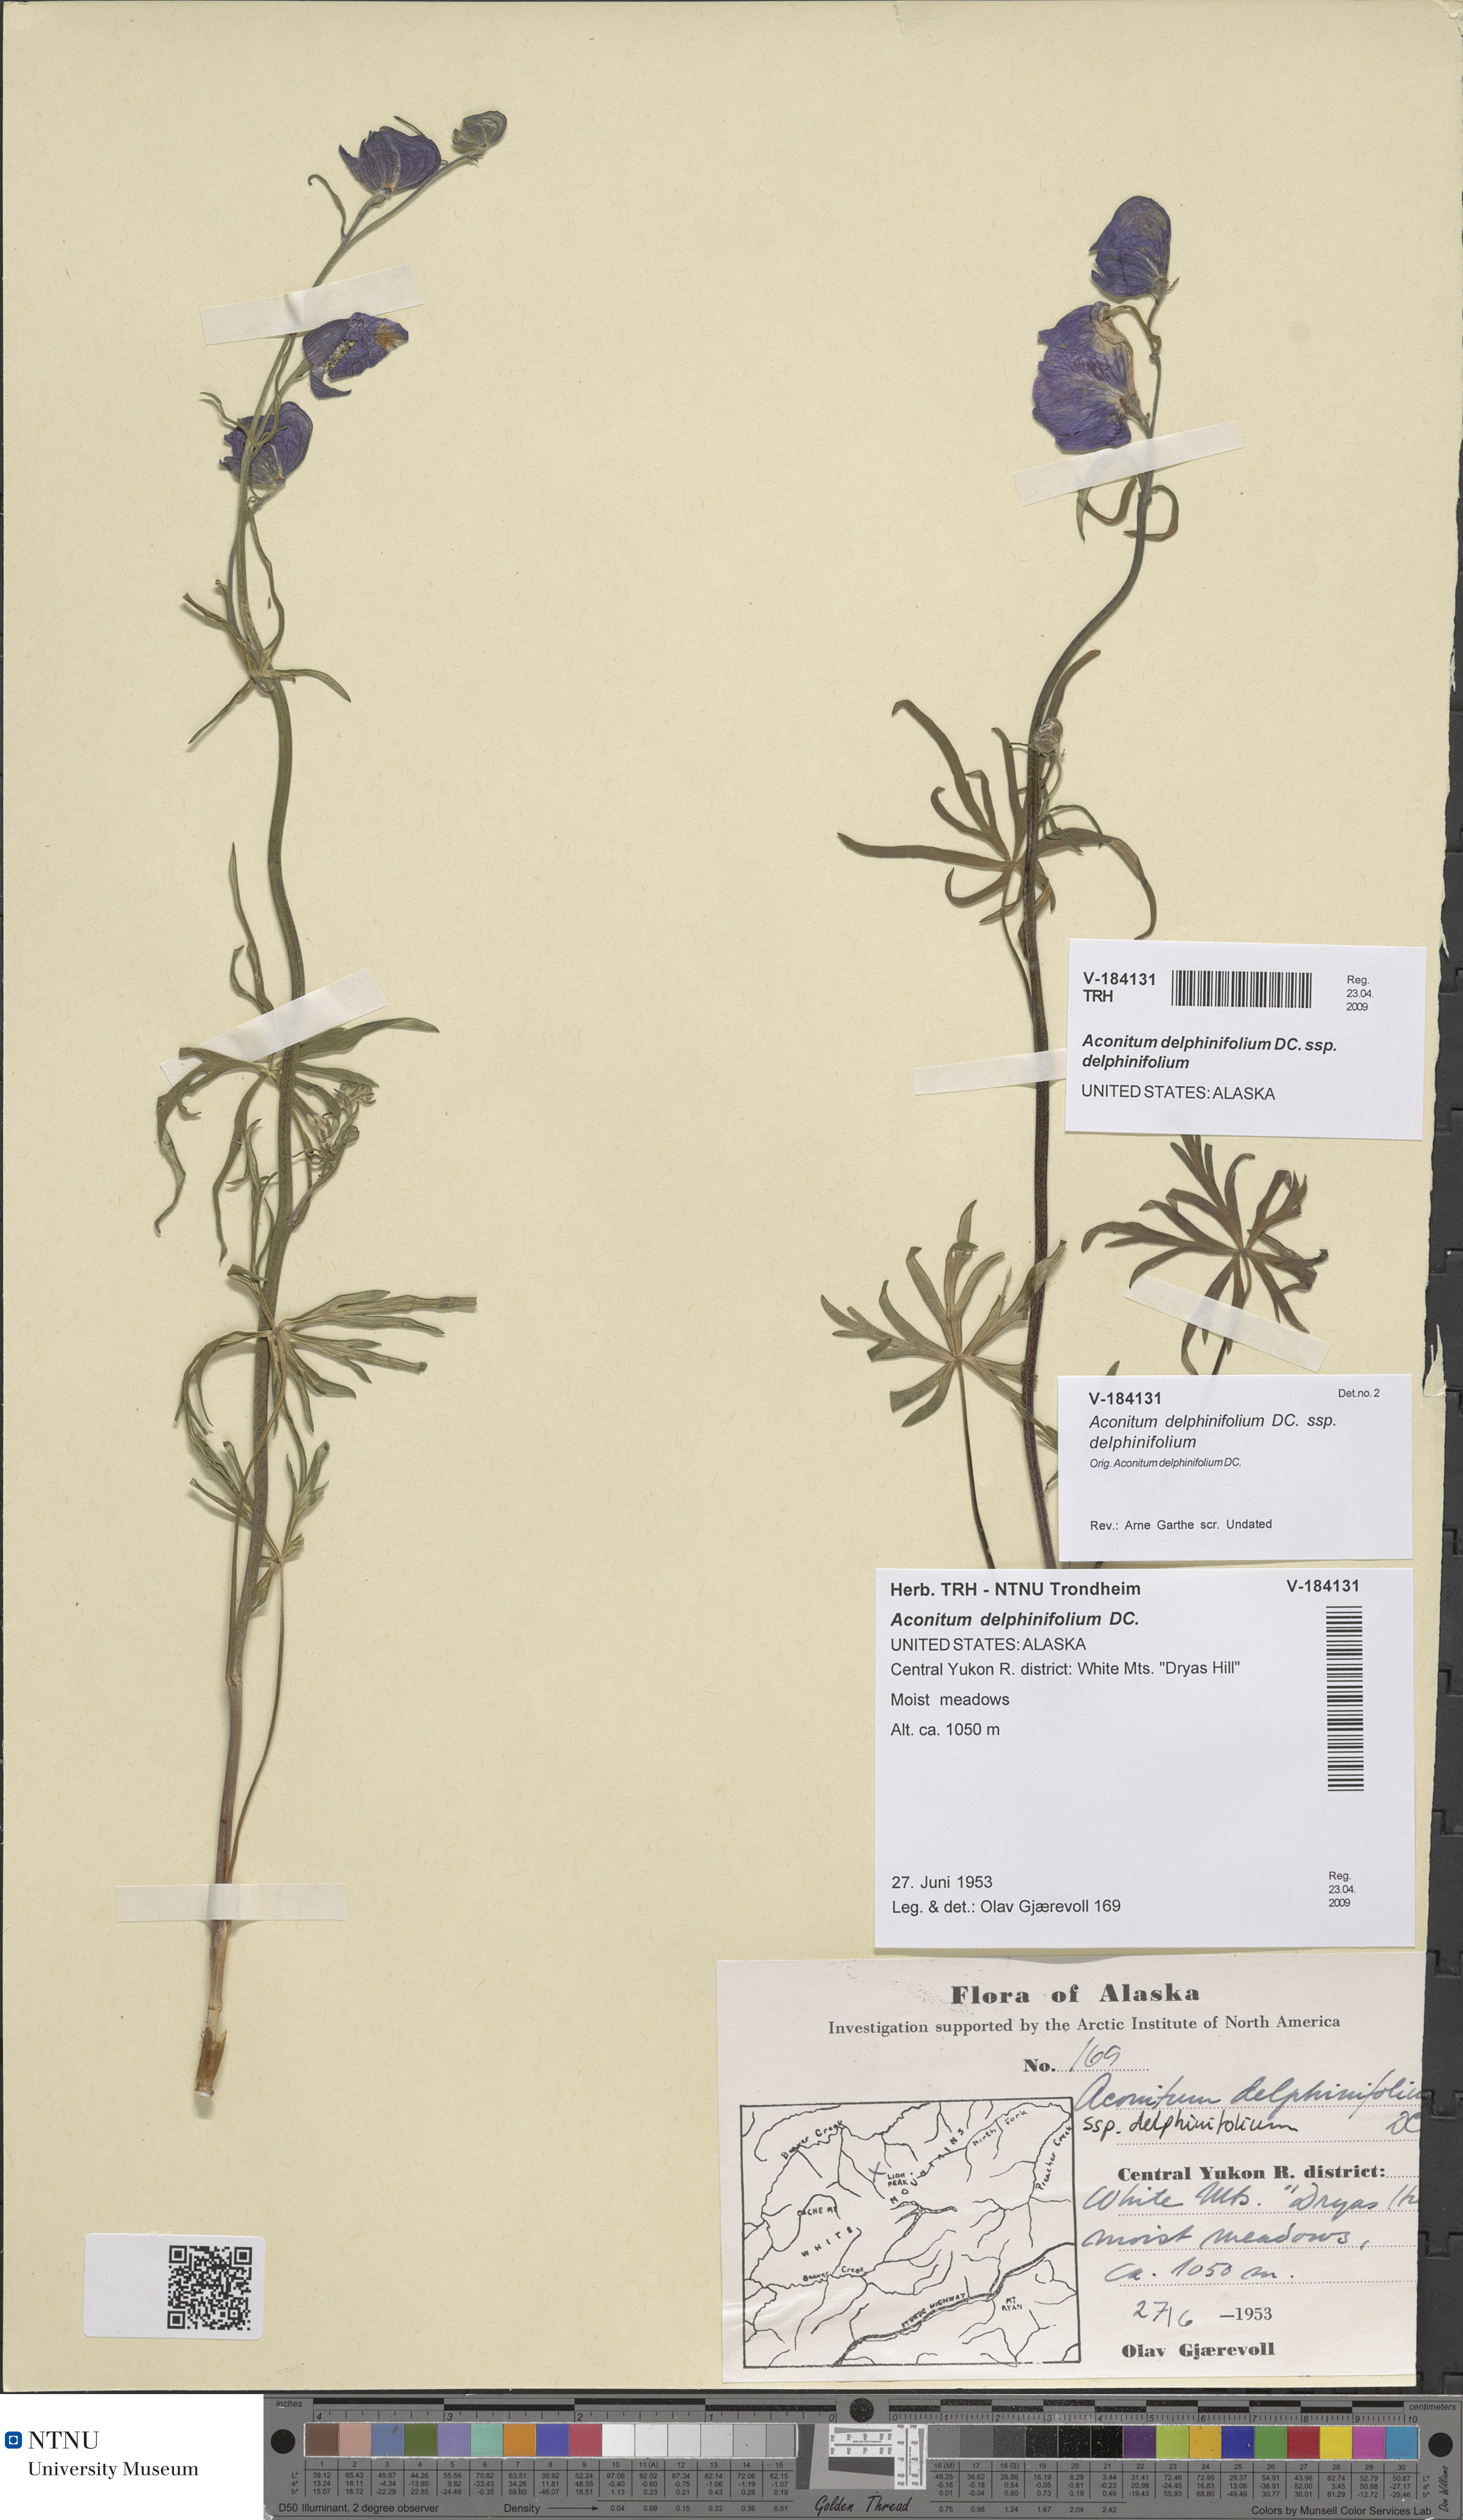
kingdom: Plantae
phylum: Tracheophyta
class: Magnoliopsida
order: Ranunculales
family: Ranunculaceae
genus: Aconitum
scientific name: Aconitum delphinifolium
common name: Larkspur-leaved monkshood
